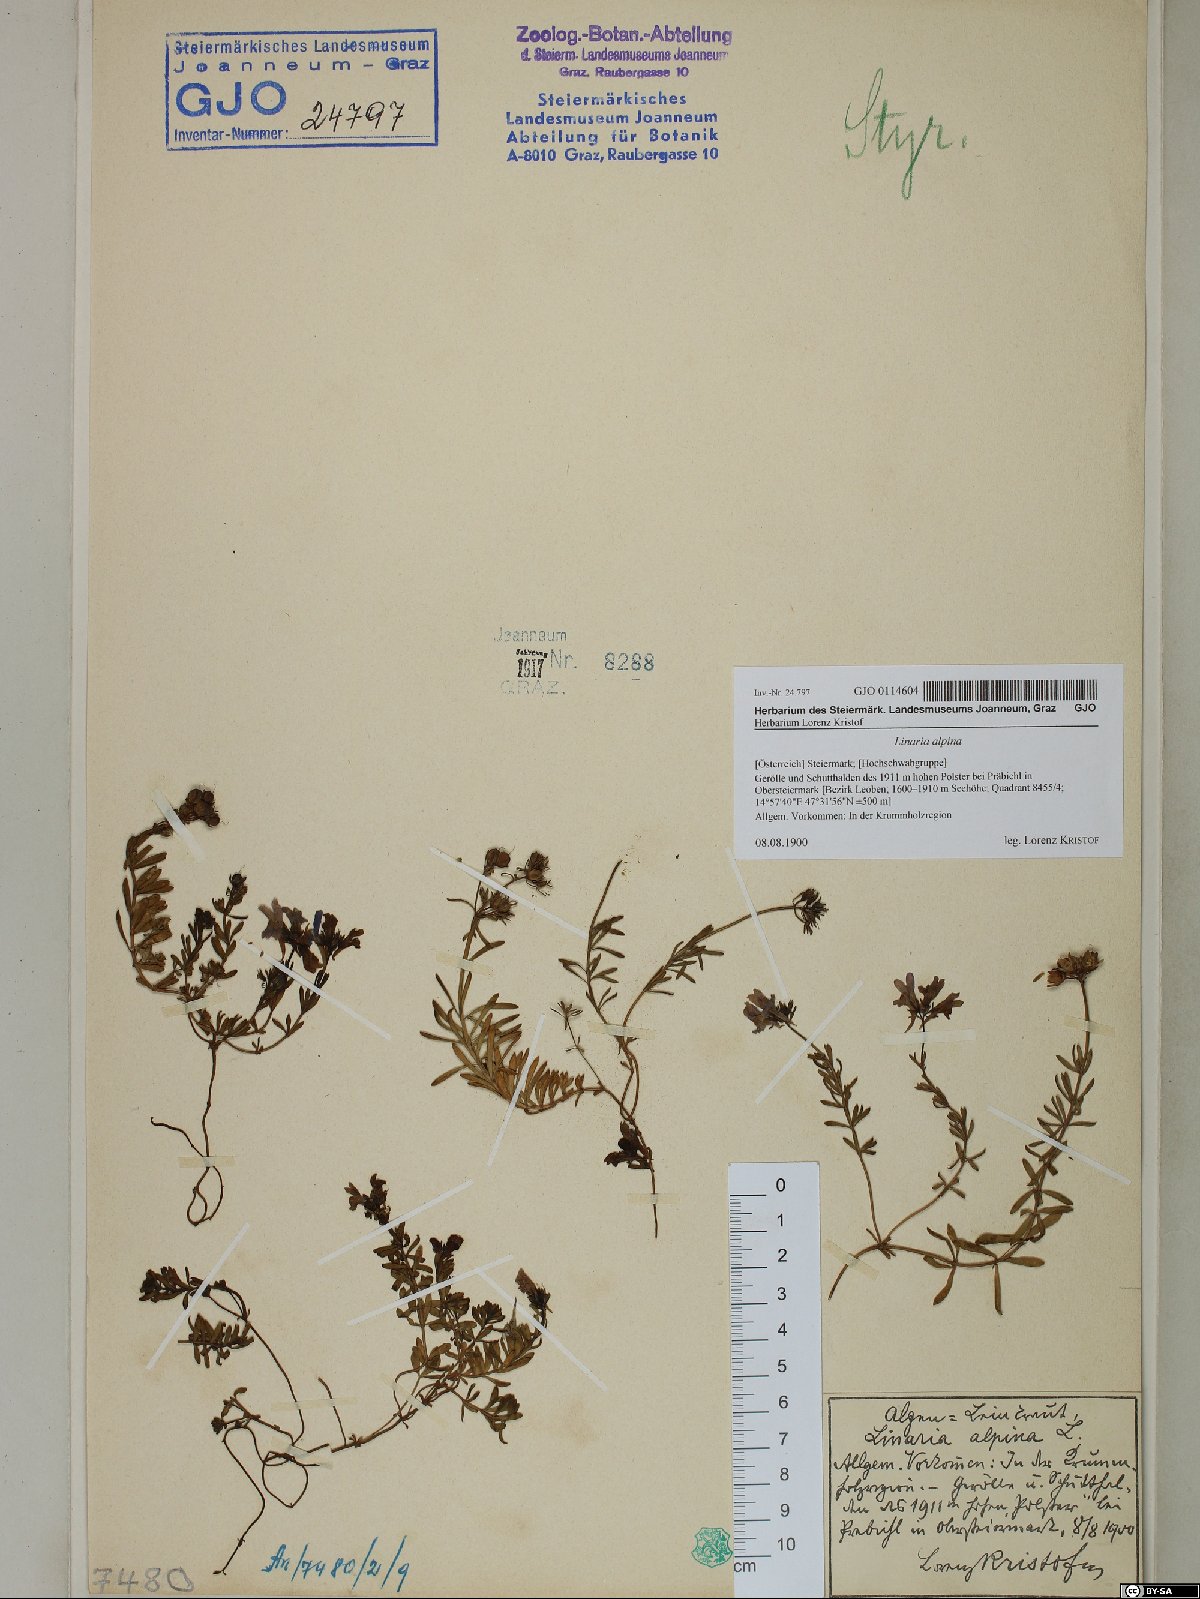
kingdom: Plantae
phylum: Tracheophyta
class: Magnoliopsida
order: Lamiales
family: Plantaginaceae
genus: Linaria
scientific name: Linaria alpina
